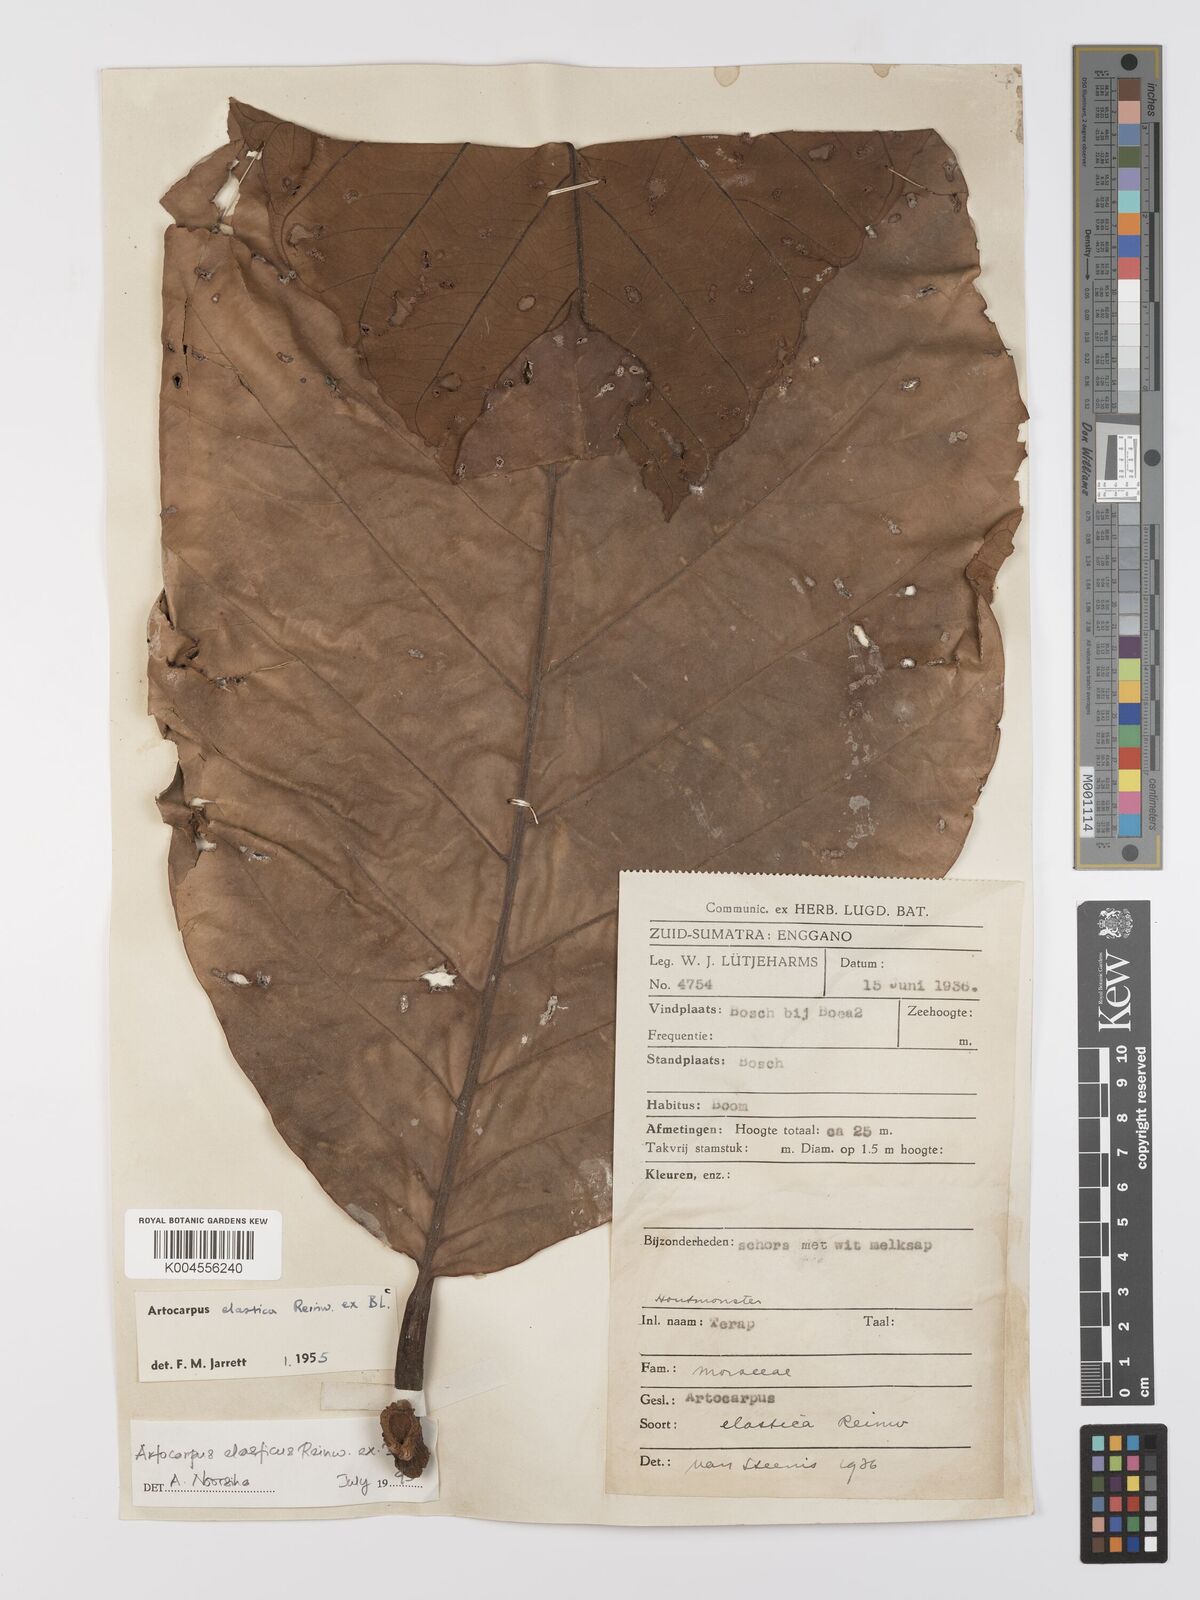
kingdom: Plantae
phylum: Tracheophyta
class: Magnoliopsida
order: Rosales
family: Moraceae
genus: Artocarpus
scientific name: Artocarpus elasticus
